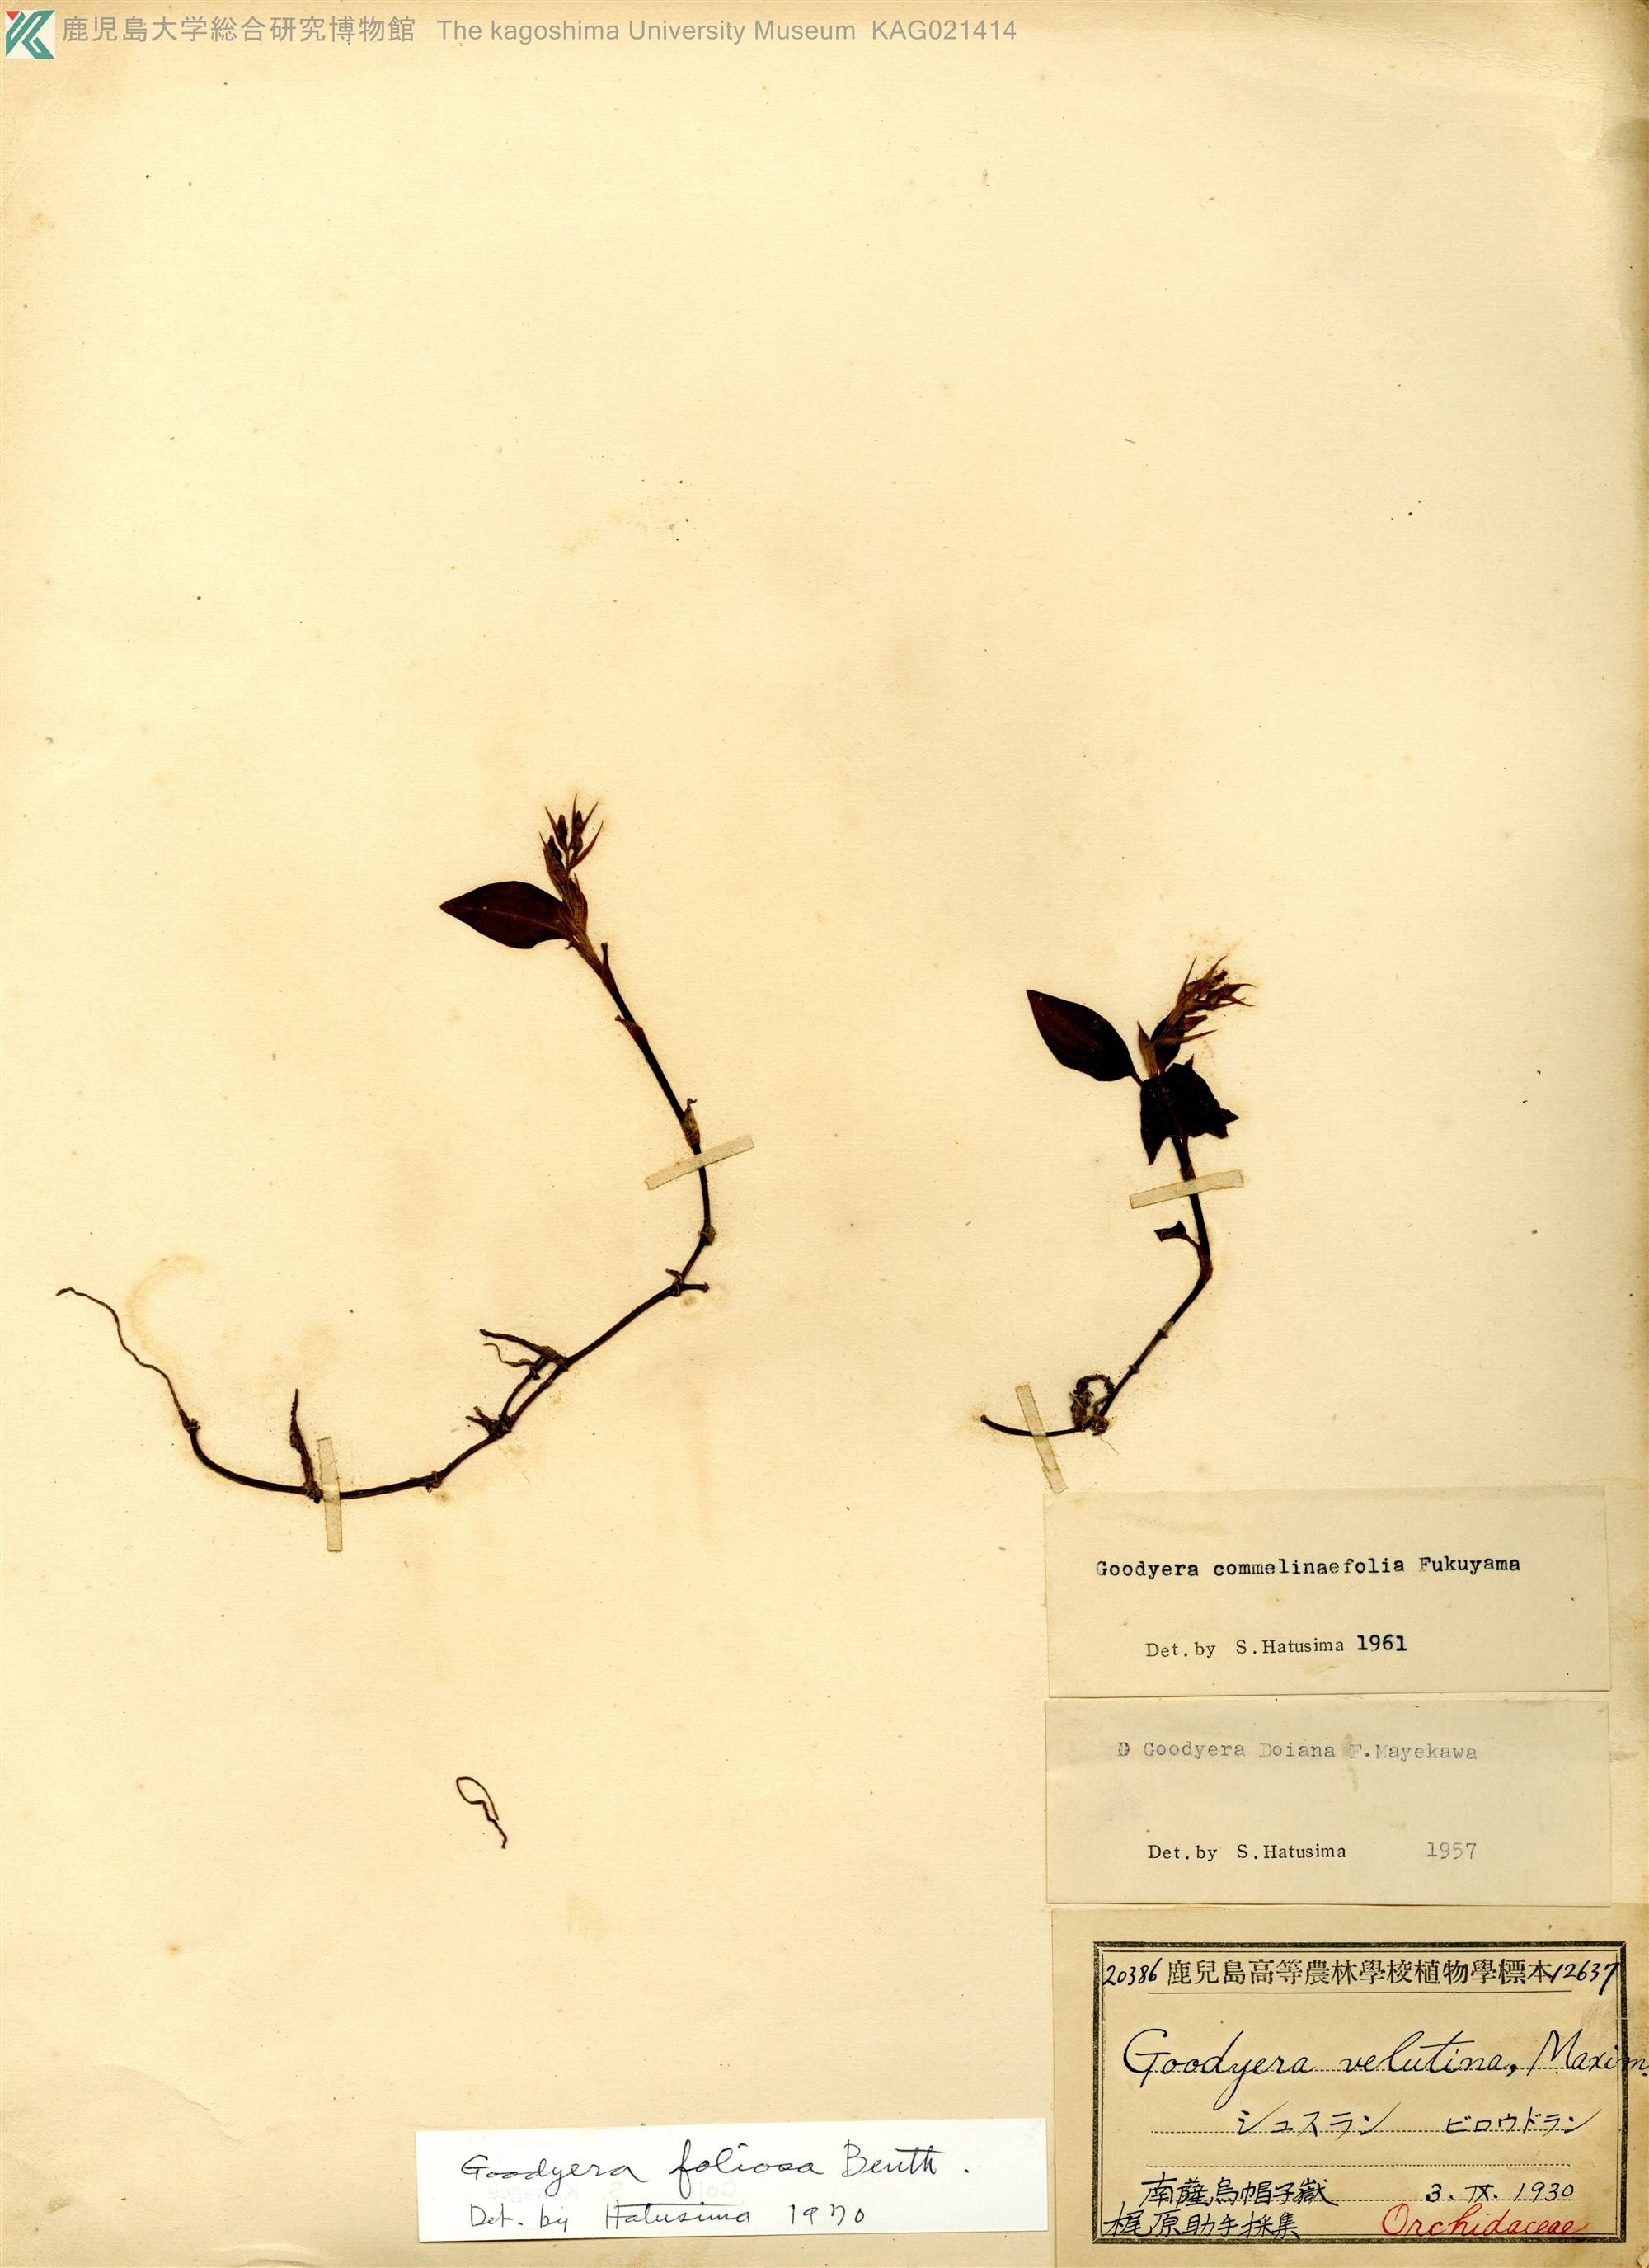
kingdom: Plantae
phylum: Tracheophyta
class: Liliopsida
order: Asparagales
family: Orchidaceae
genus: Goodyera
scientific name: Goodyera foliosa
